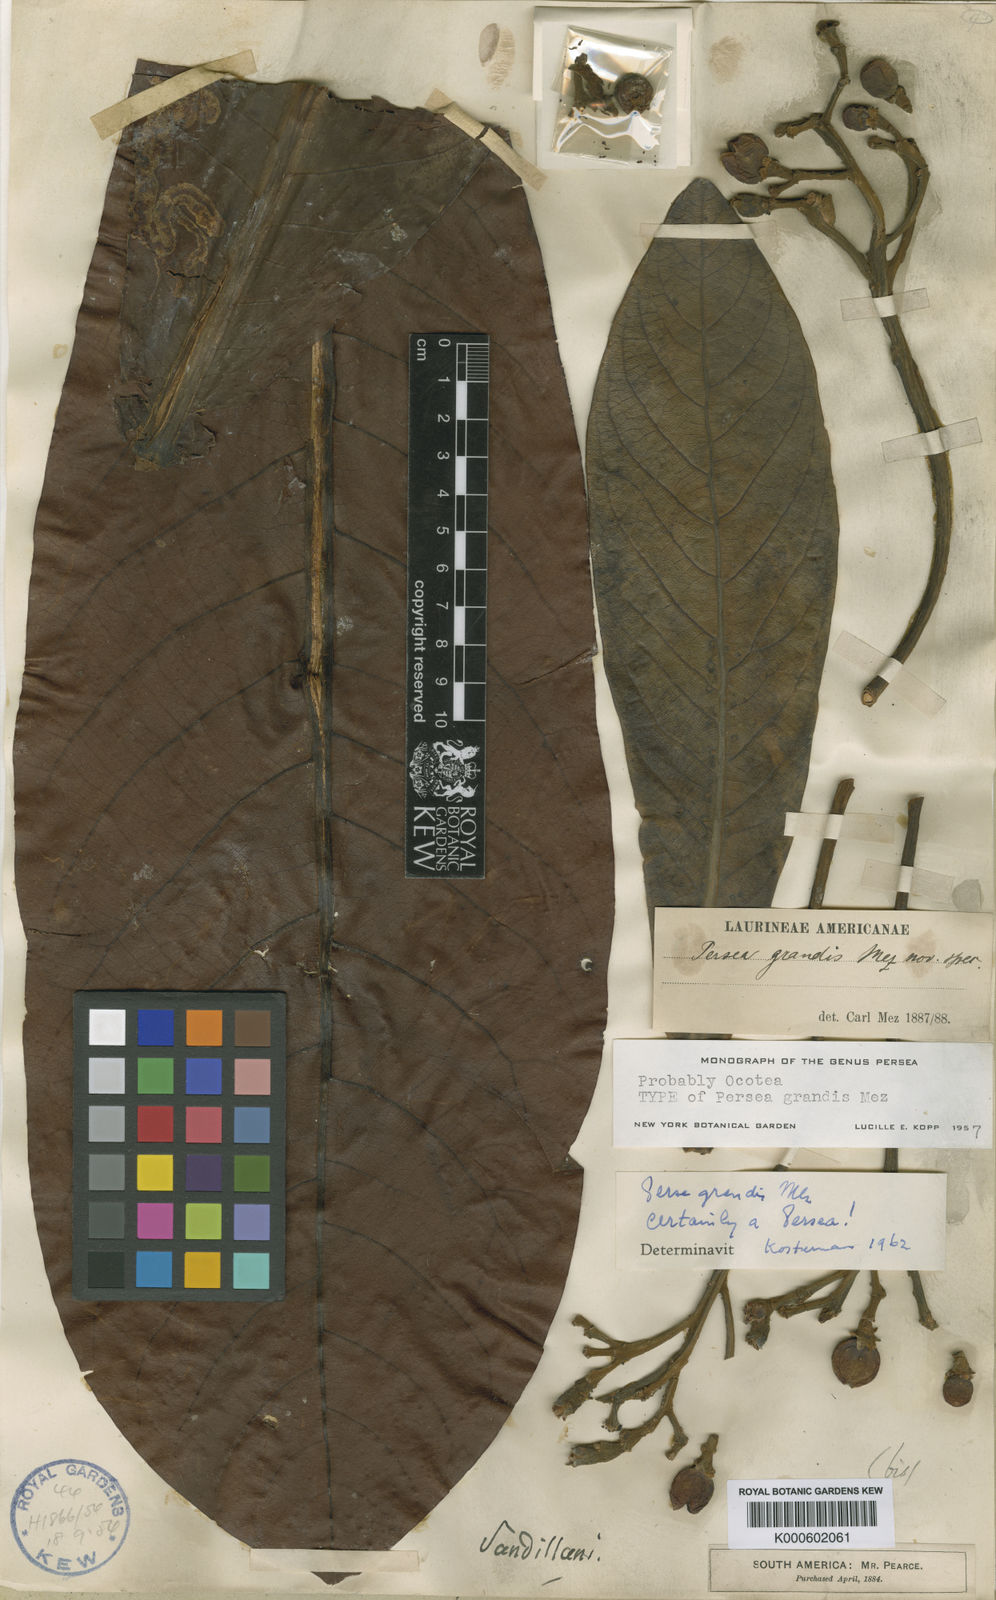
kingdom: Plantae
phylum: Tracheophyta
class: Magnoliopsida
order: Laurales
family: Lauraceae
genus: Nectandra
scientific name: Nectandra villosa
